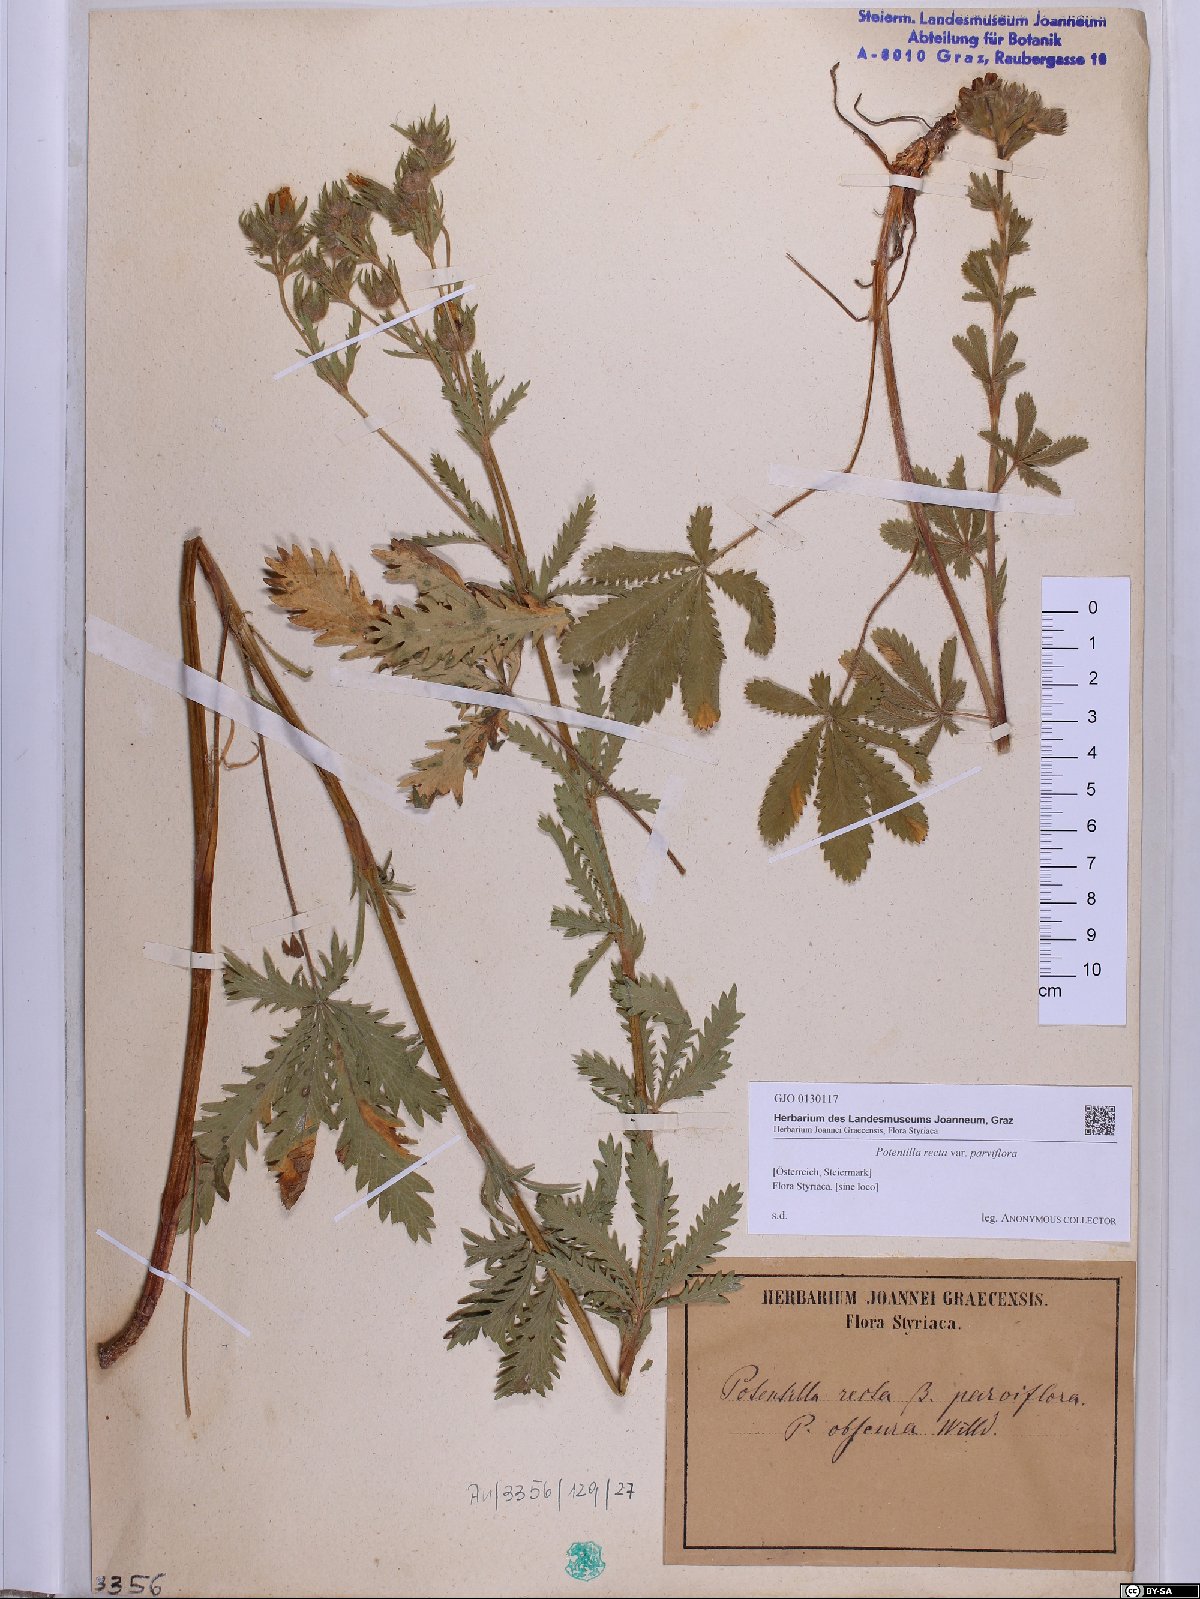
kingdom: Plantae
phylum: Tracheophyta
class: Magnoliopsida
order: Rosales
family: Rosaceae
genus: Potentilla
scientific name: Potentilla recta
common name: Sulphur cinquefoil
